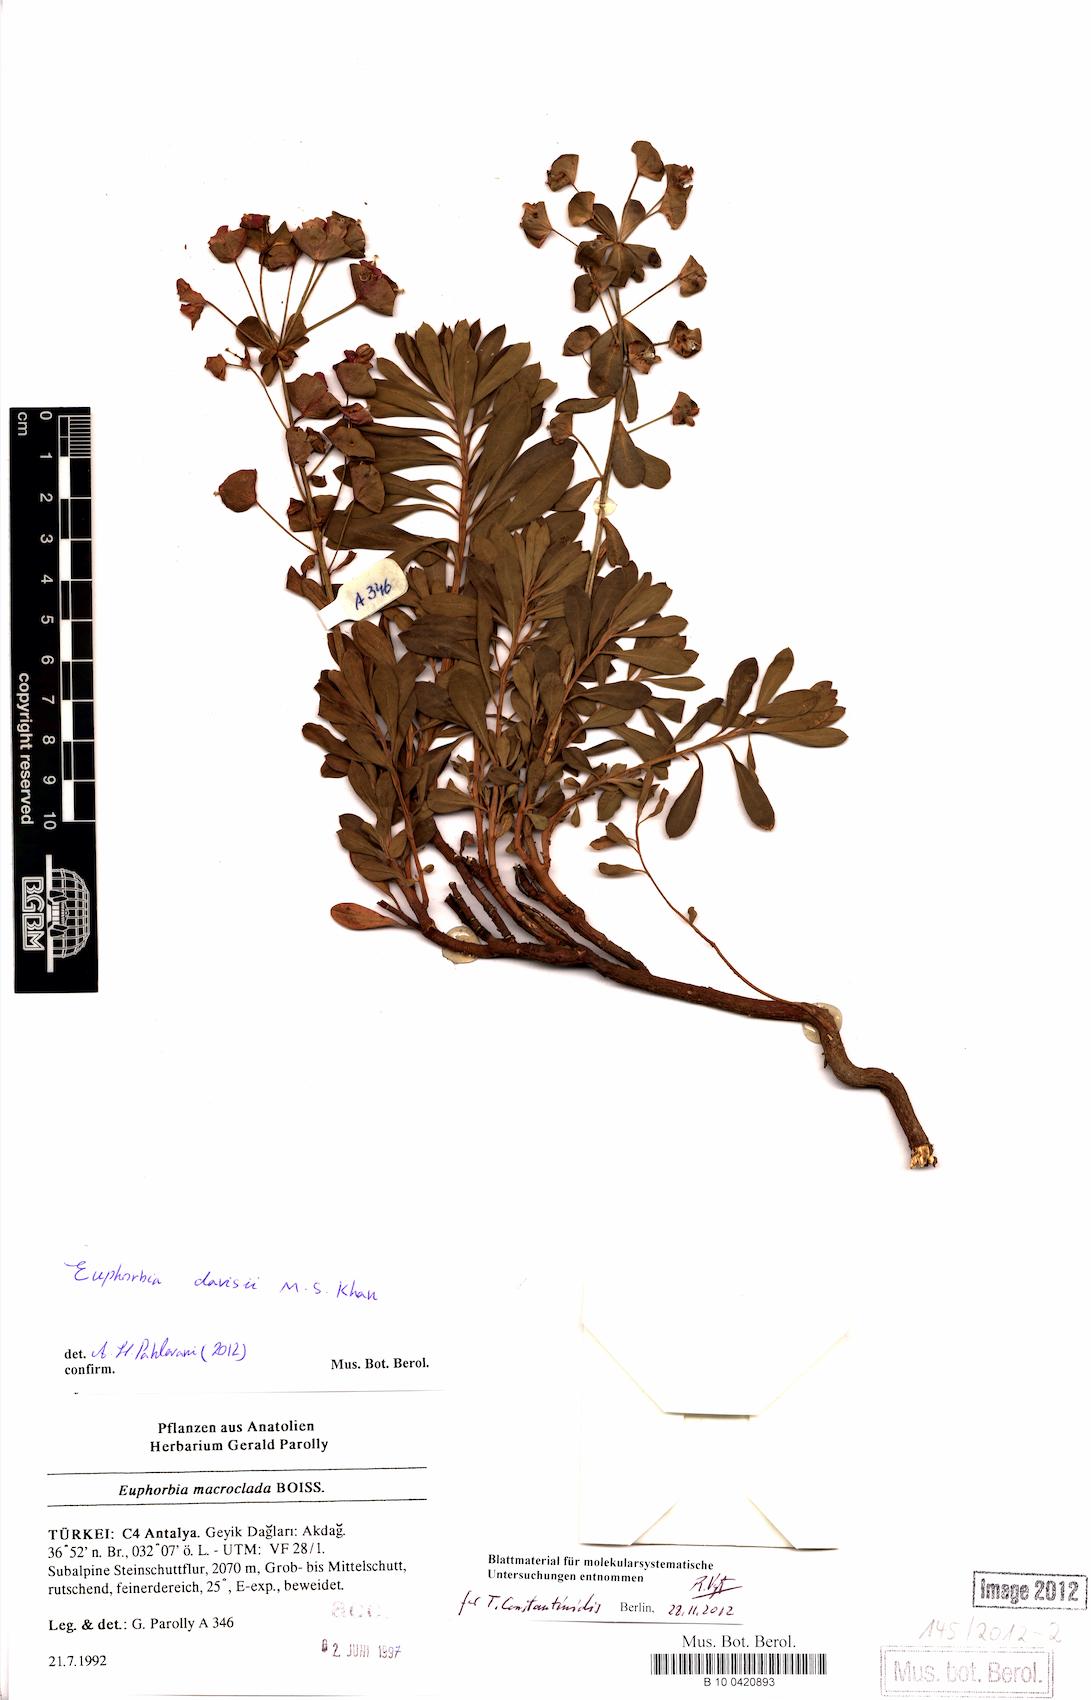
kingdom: Plantae
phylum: Tracheophyta
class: Magnoliopsida
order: Malpighiales
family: Euphorbiaceae
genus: Euphorbia
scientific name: Euphorbia davisii
